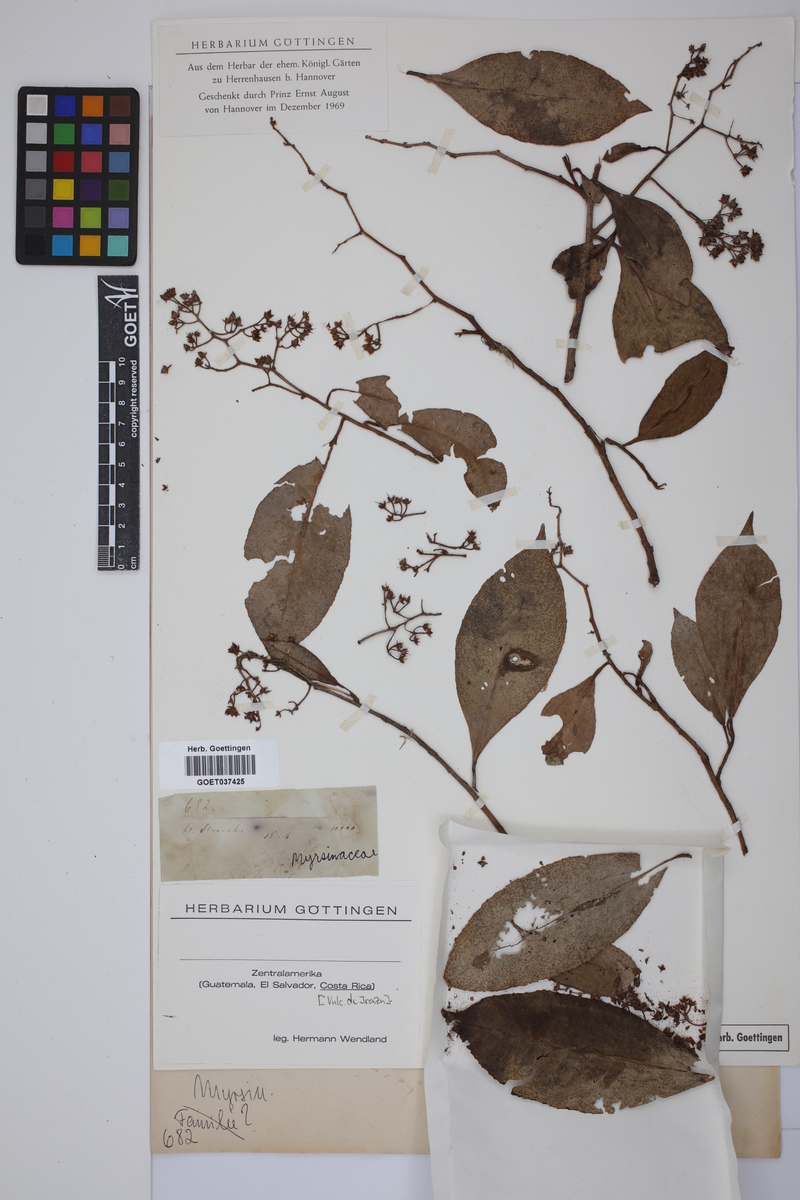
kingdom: Plantae
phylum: Tracheophyta
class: Magnoliopsida
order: Ericales
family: Primulaceae
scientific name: Primulaceae
